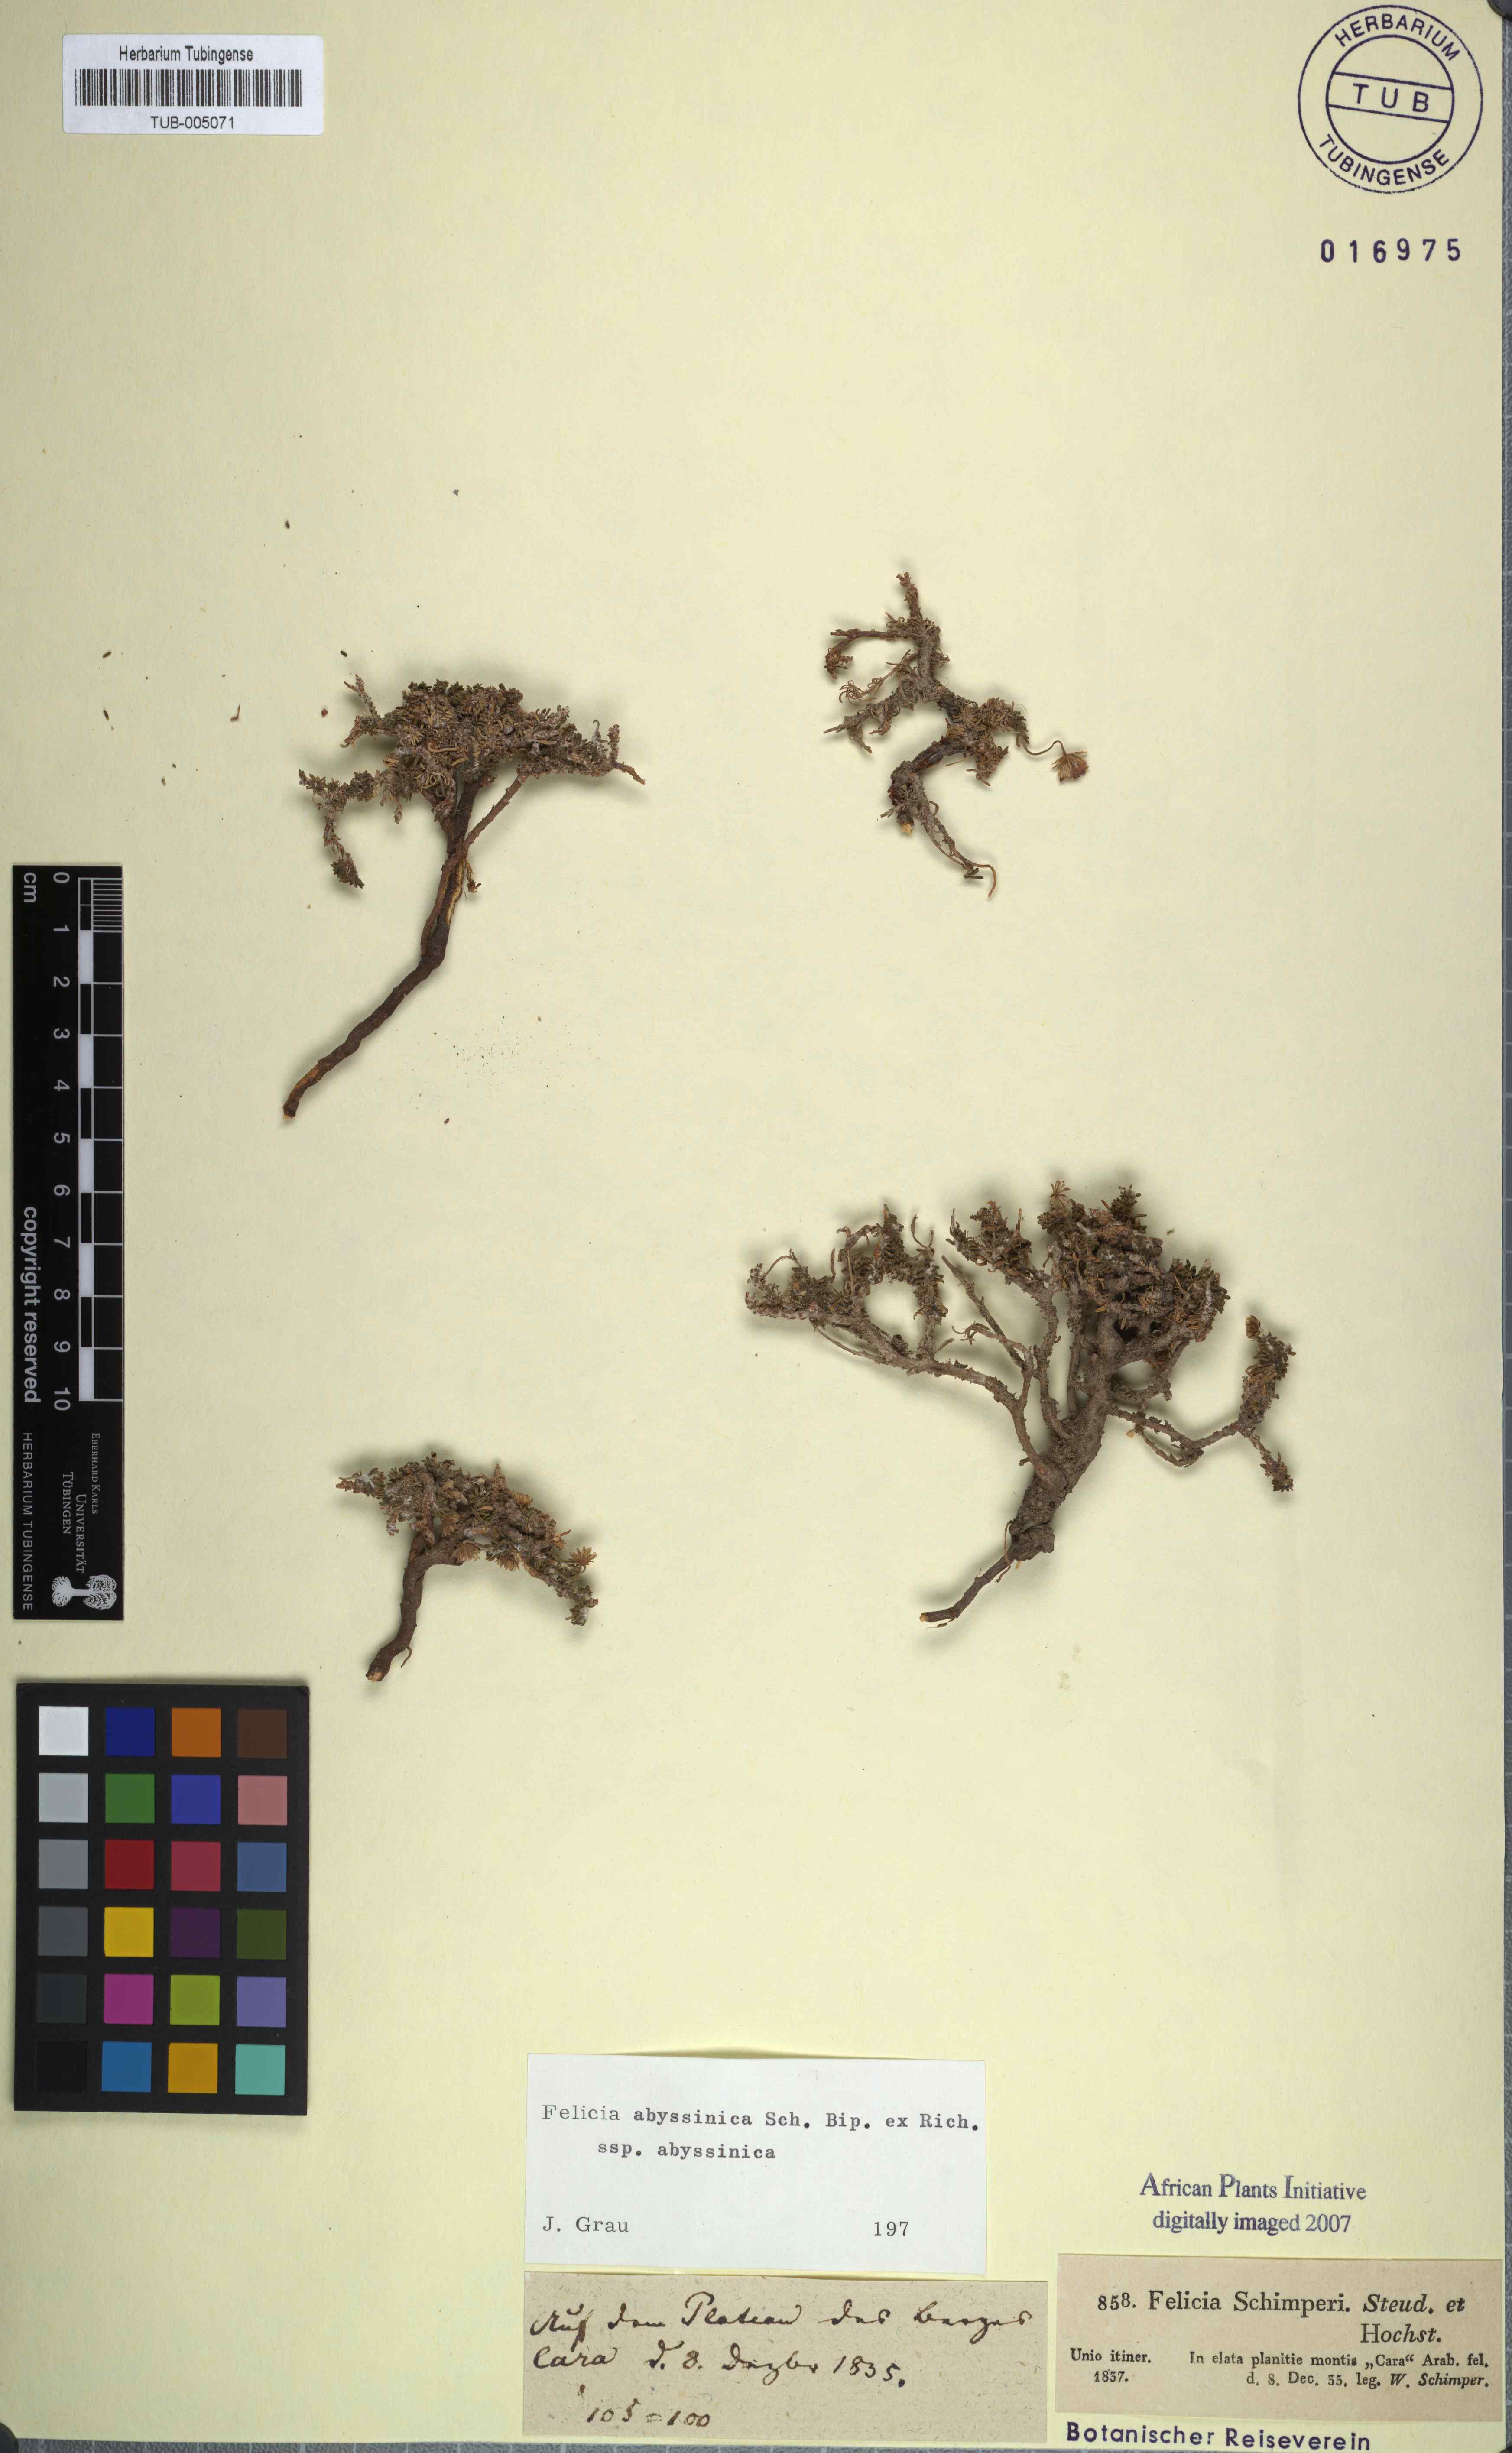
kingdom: Plantae
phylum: Tracheophyta
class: Magnoliopsida
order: Asterales
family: Asteraceae
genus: Felicia
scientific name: Felicia abyssinica
